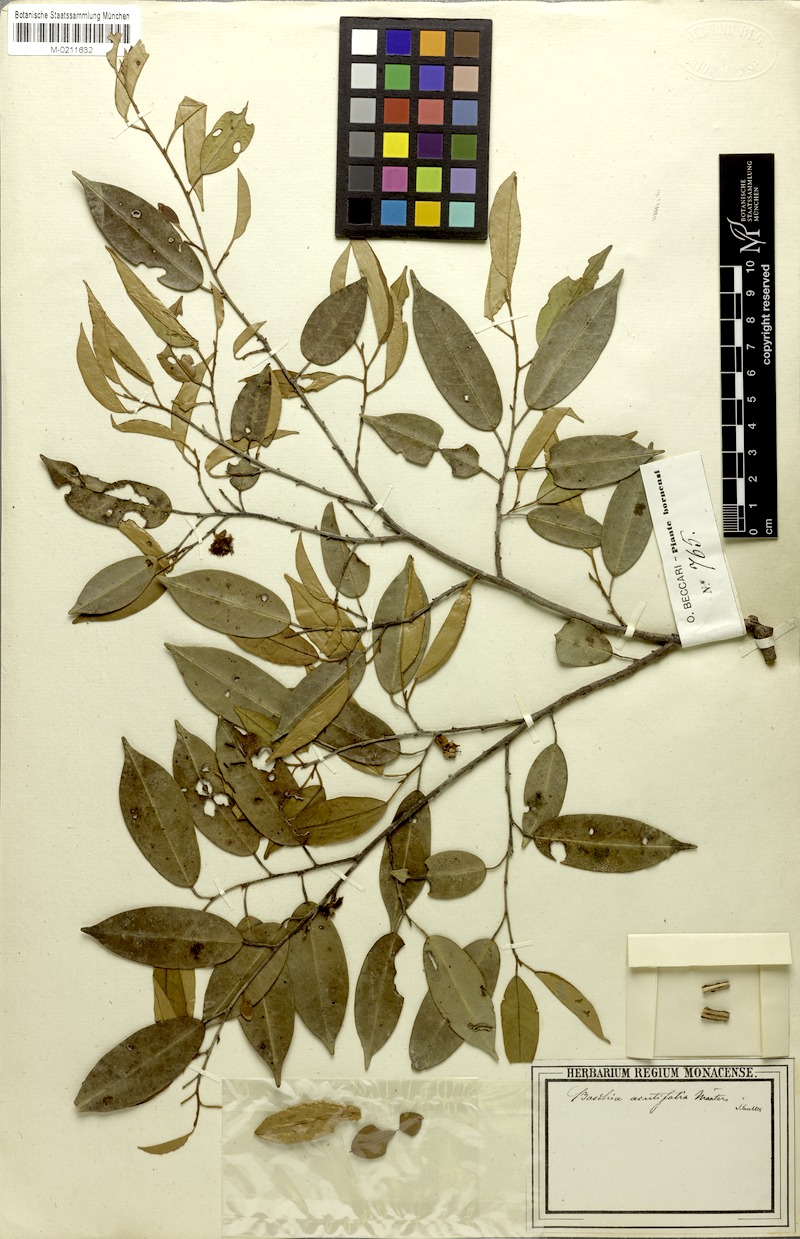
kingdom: Plantae
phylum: Tracheophyta
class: Magnoliopsida
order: Malvales
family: Malvaceae
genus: Boschia
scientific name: Boschia griffithii
